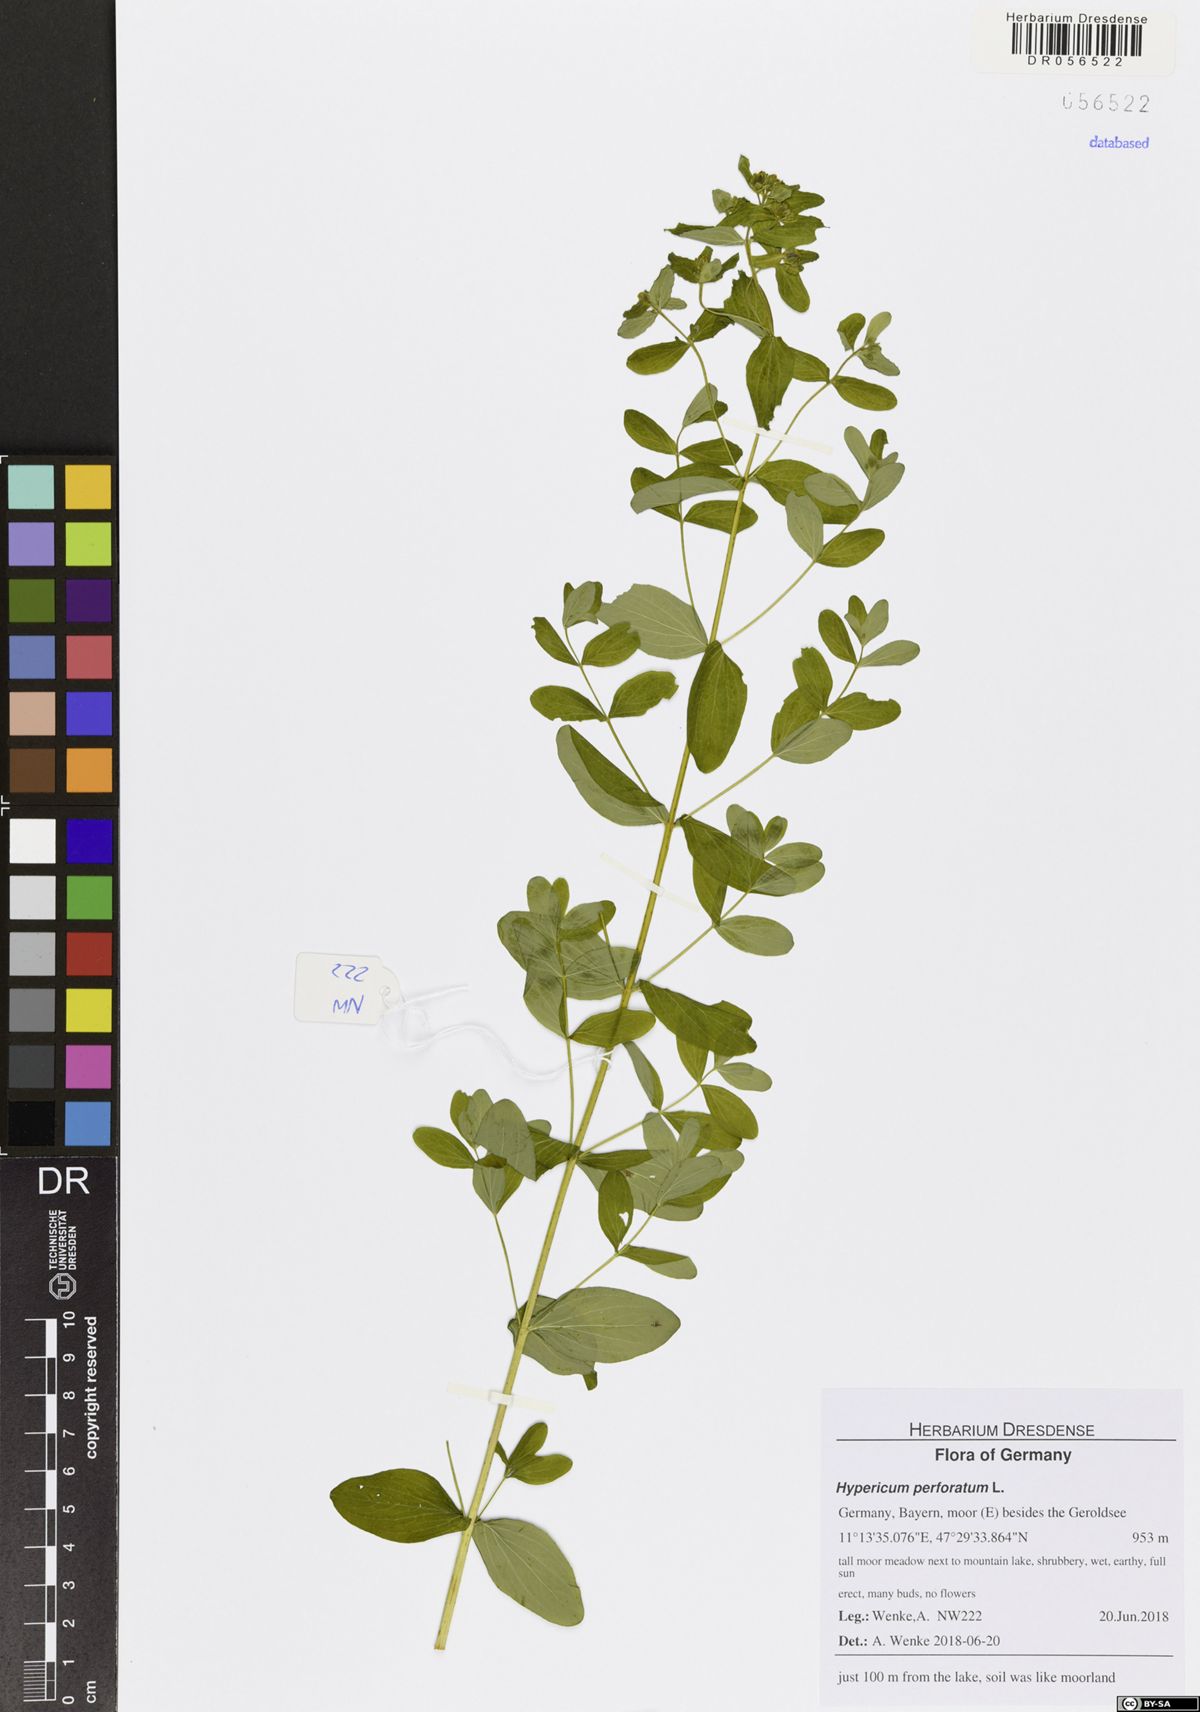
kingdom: Plantae
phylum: Tracheophyta
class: Magnoliopsida
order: Malpighiales
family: Hypericaceae
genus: Hypericum
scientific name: Hypericum perforatum
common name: Common st. johnswort
